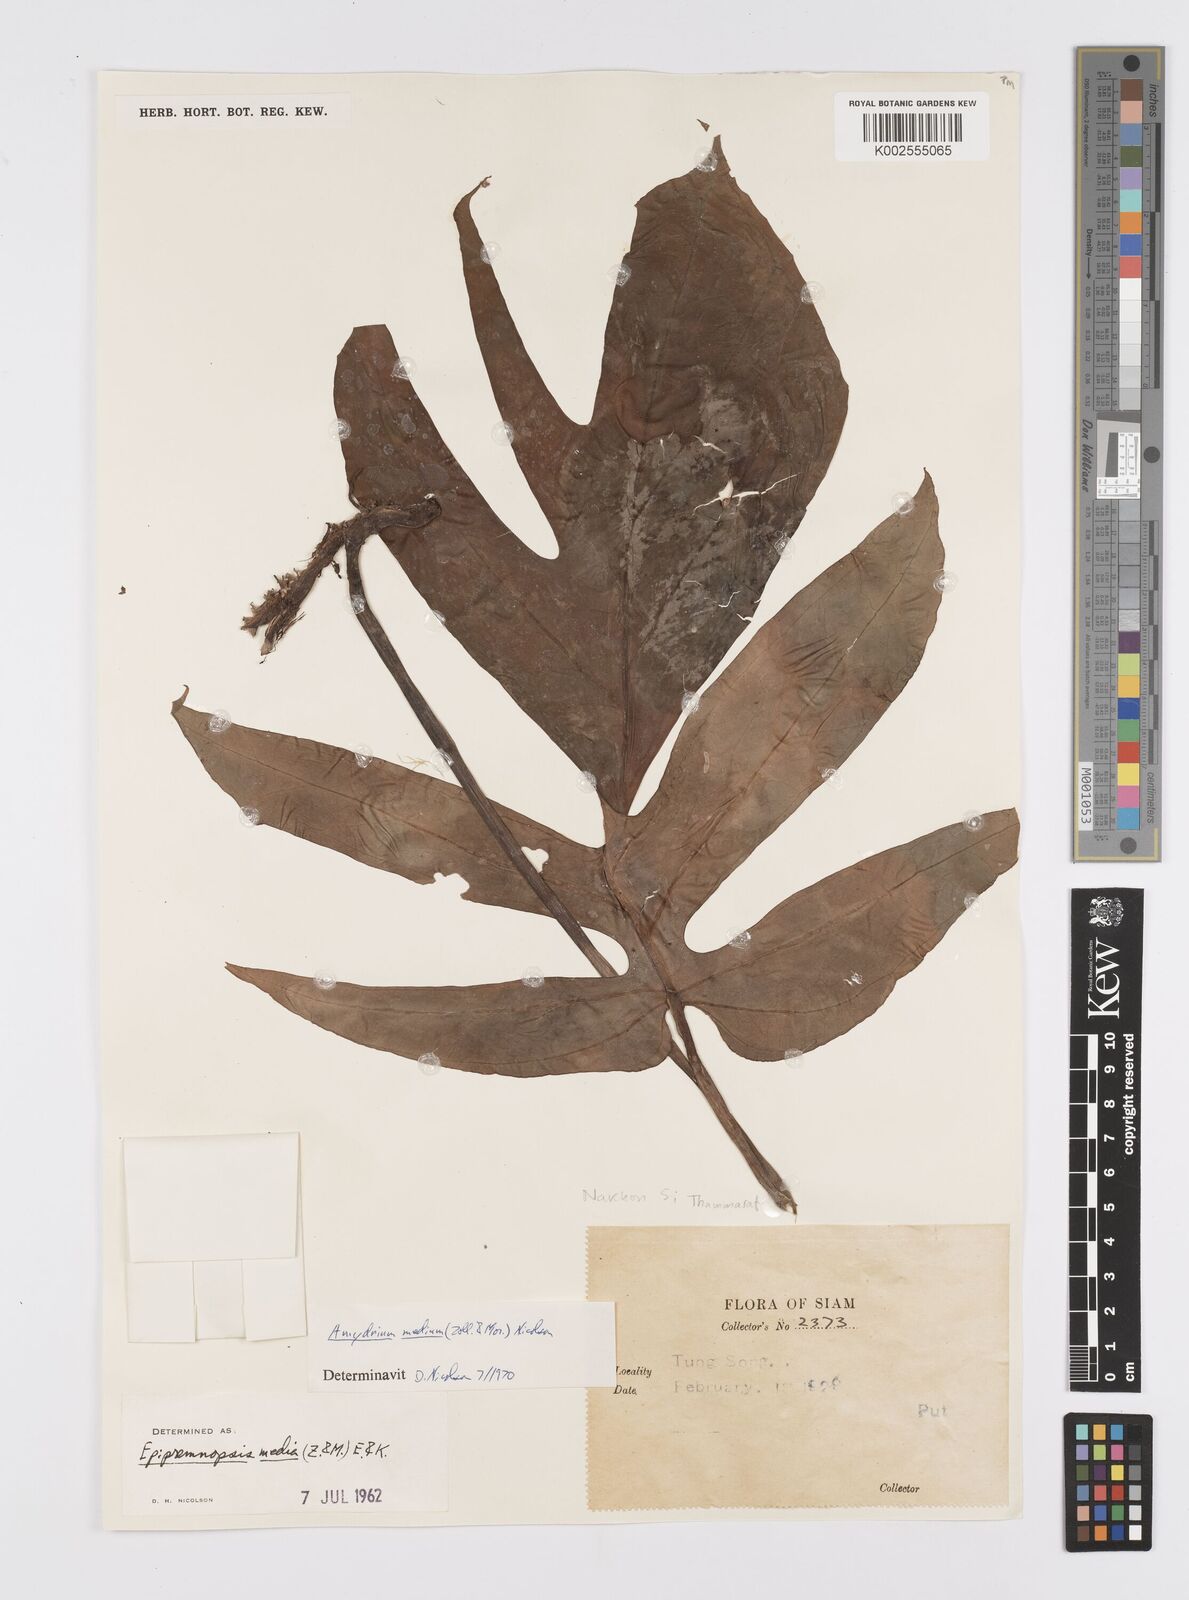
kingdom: Plantae
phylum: Tracheophyta
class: Liliopsida
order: Alismatales
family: Araceae
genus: Amydrium
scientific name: Amydrium medium
